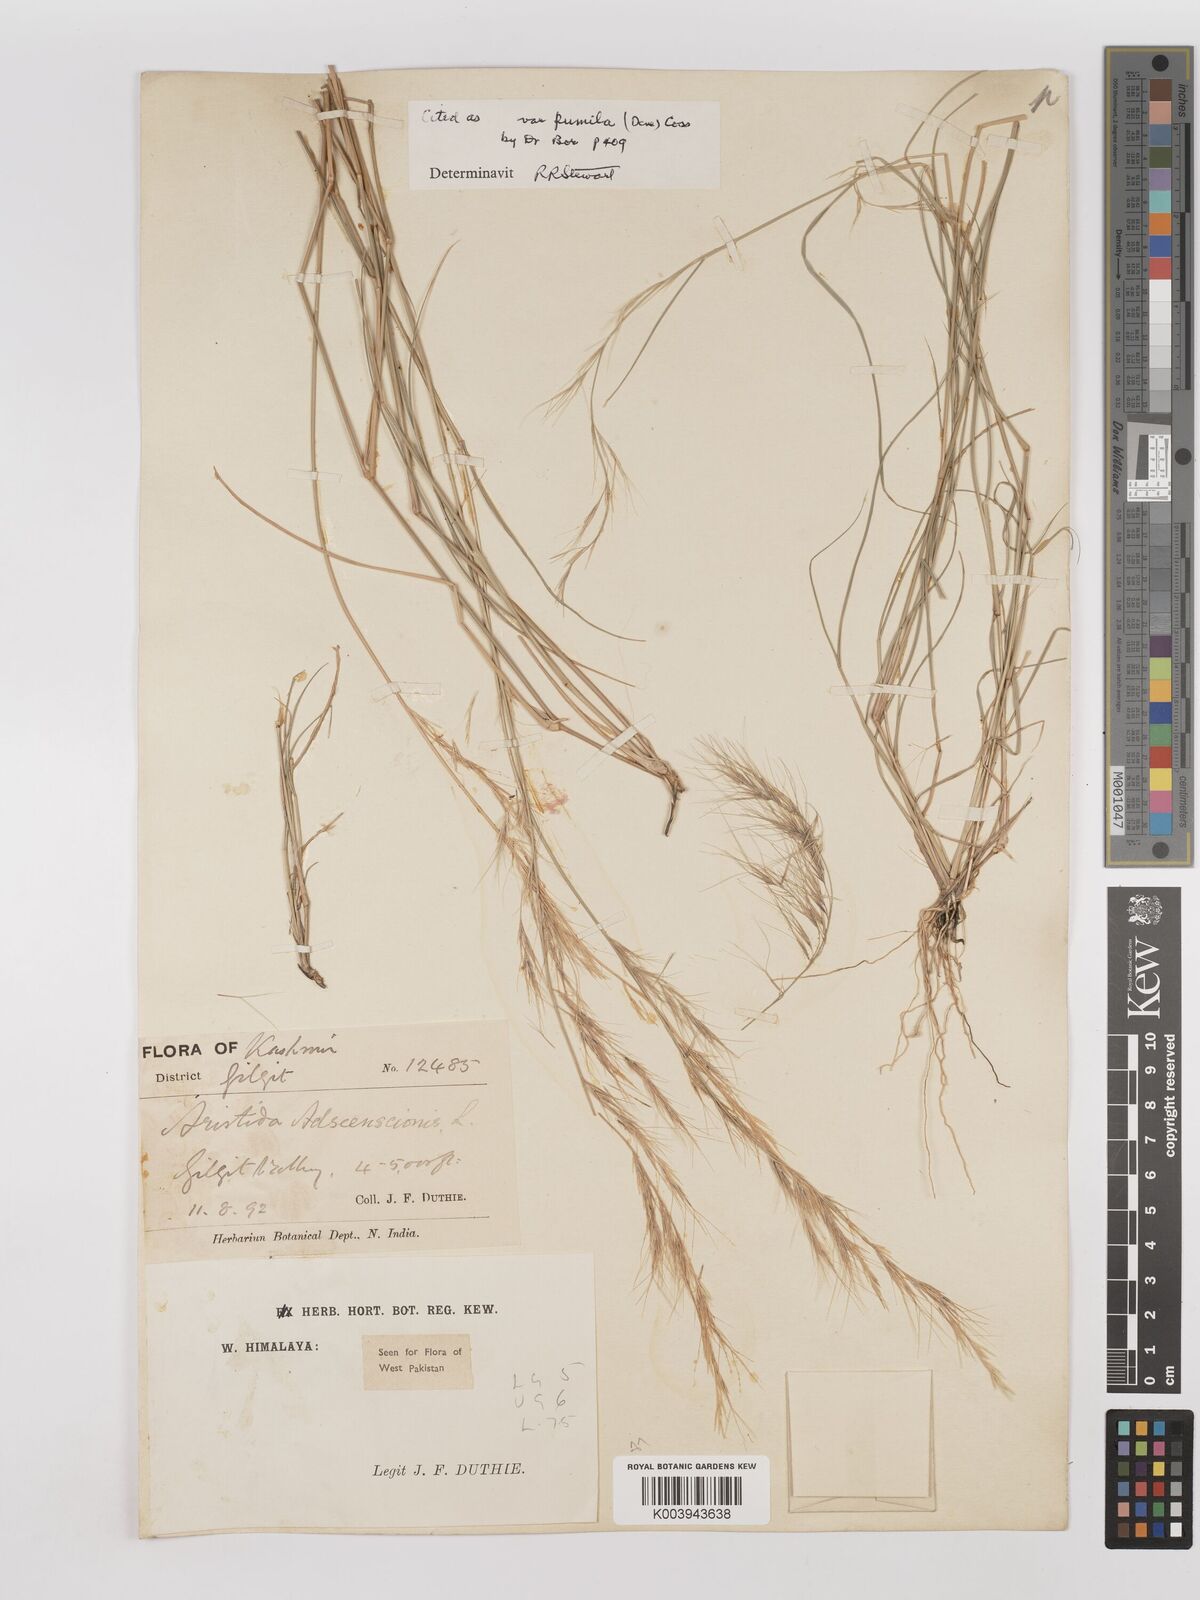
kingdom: Plantae
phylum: Tracheophyta
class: Liliopsida
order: Poales
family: Poaceae
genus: Aristida
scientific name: Aristida adscensionis
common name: Sixweeks threeawn
